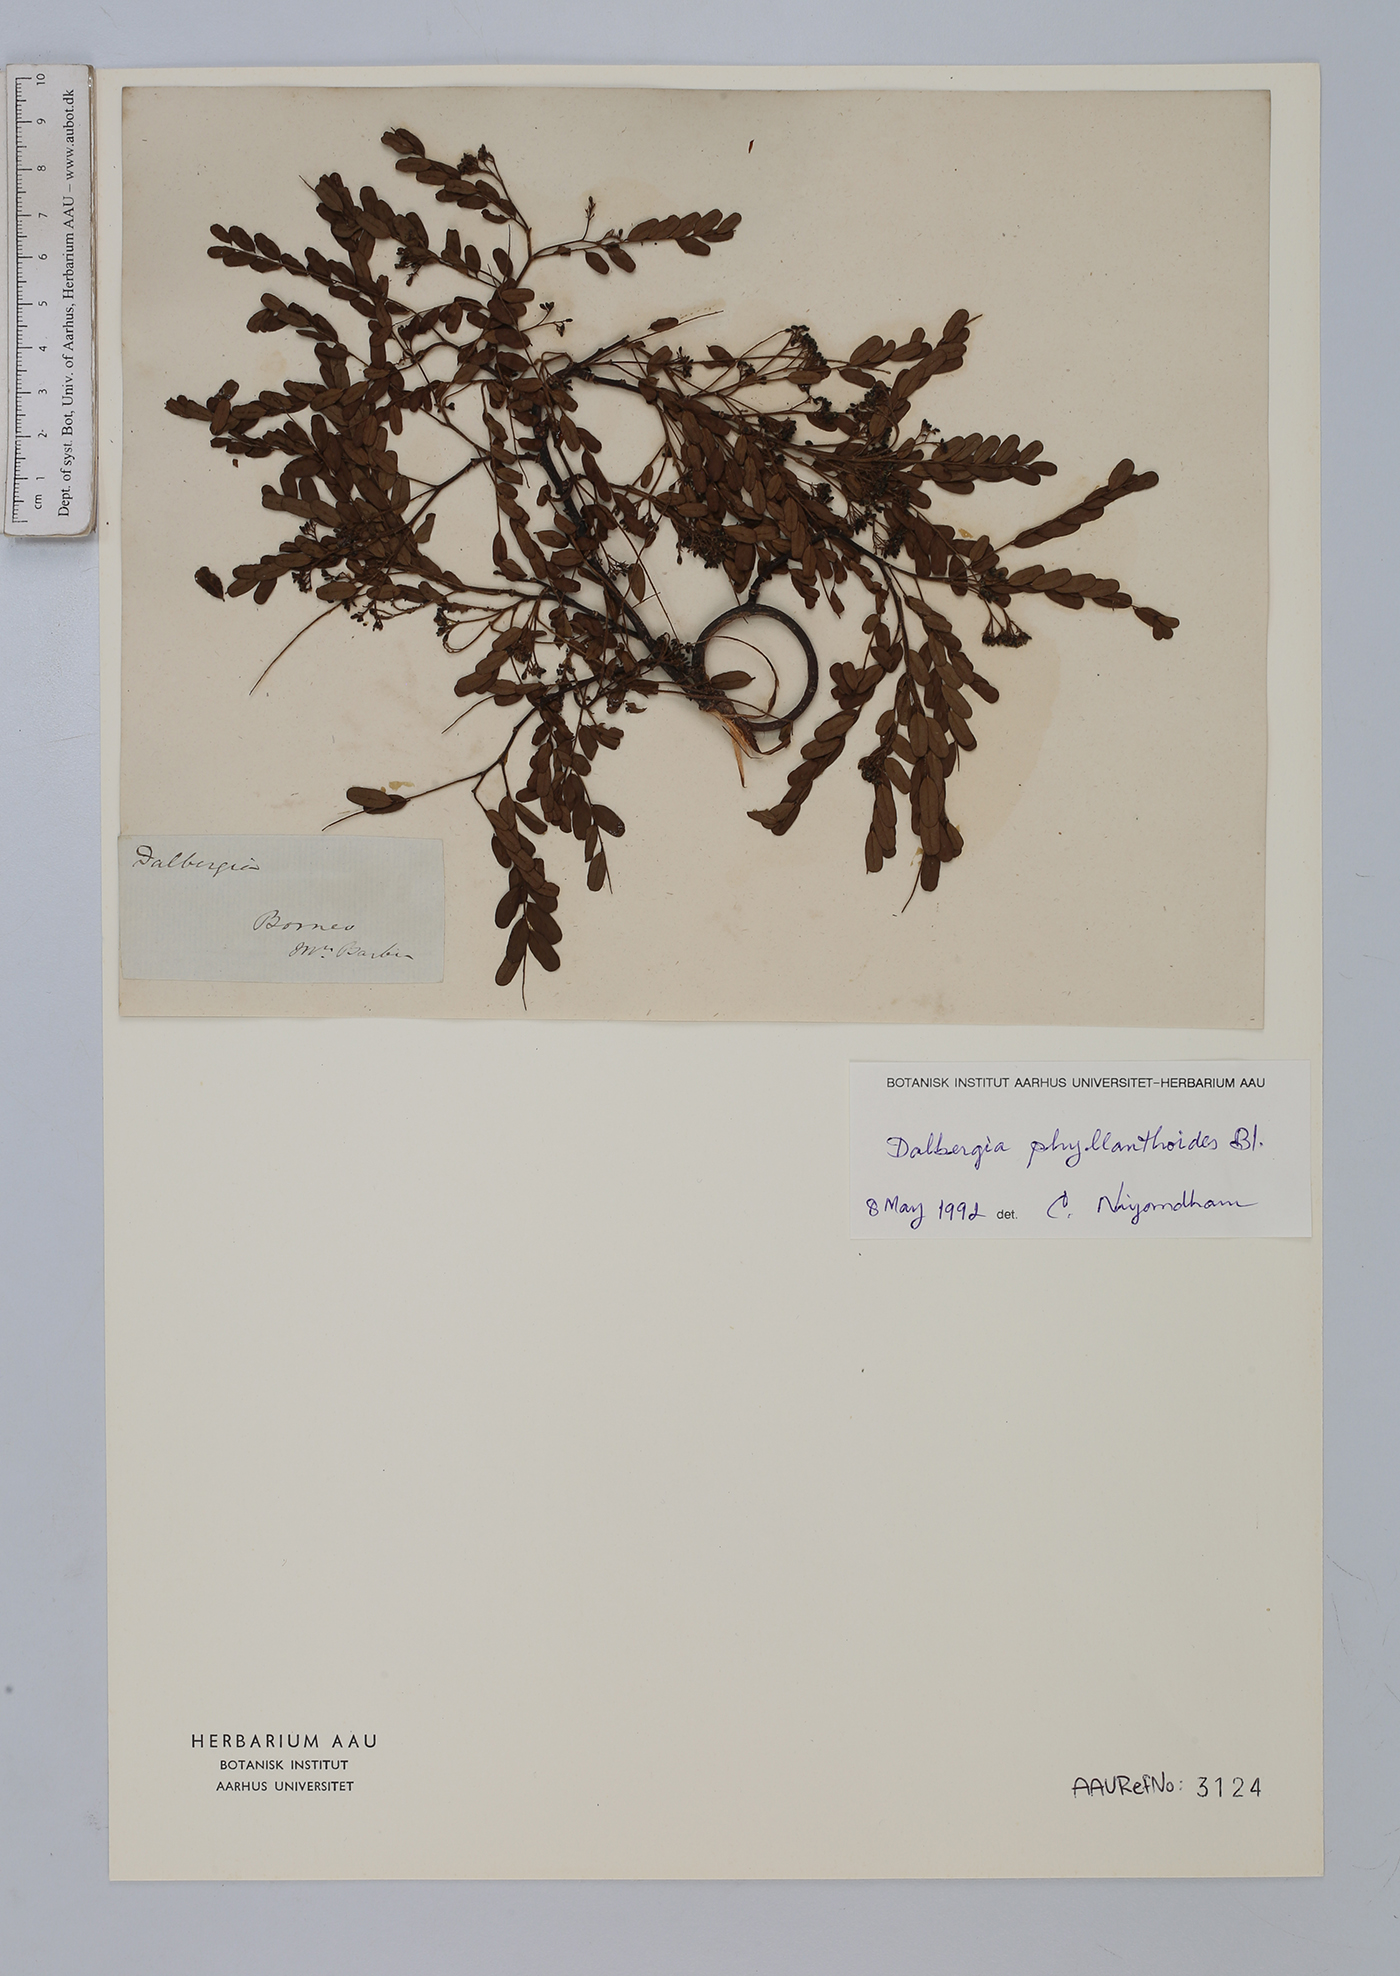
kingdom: Plantae
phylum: Tracheophyta
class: Magnoliopsida
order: Fabales
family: Fabaceae
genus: Dalbergia
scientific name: Dalbergia junghuhnii
